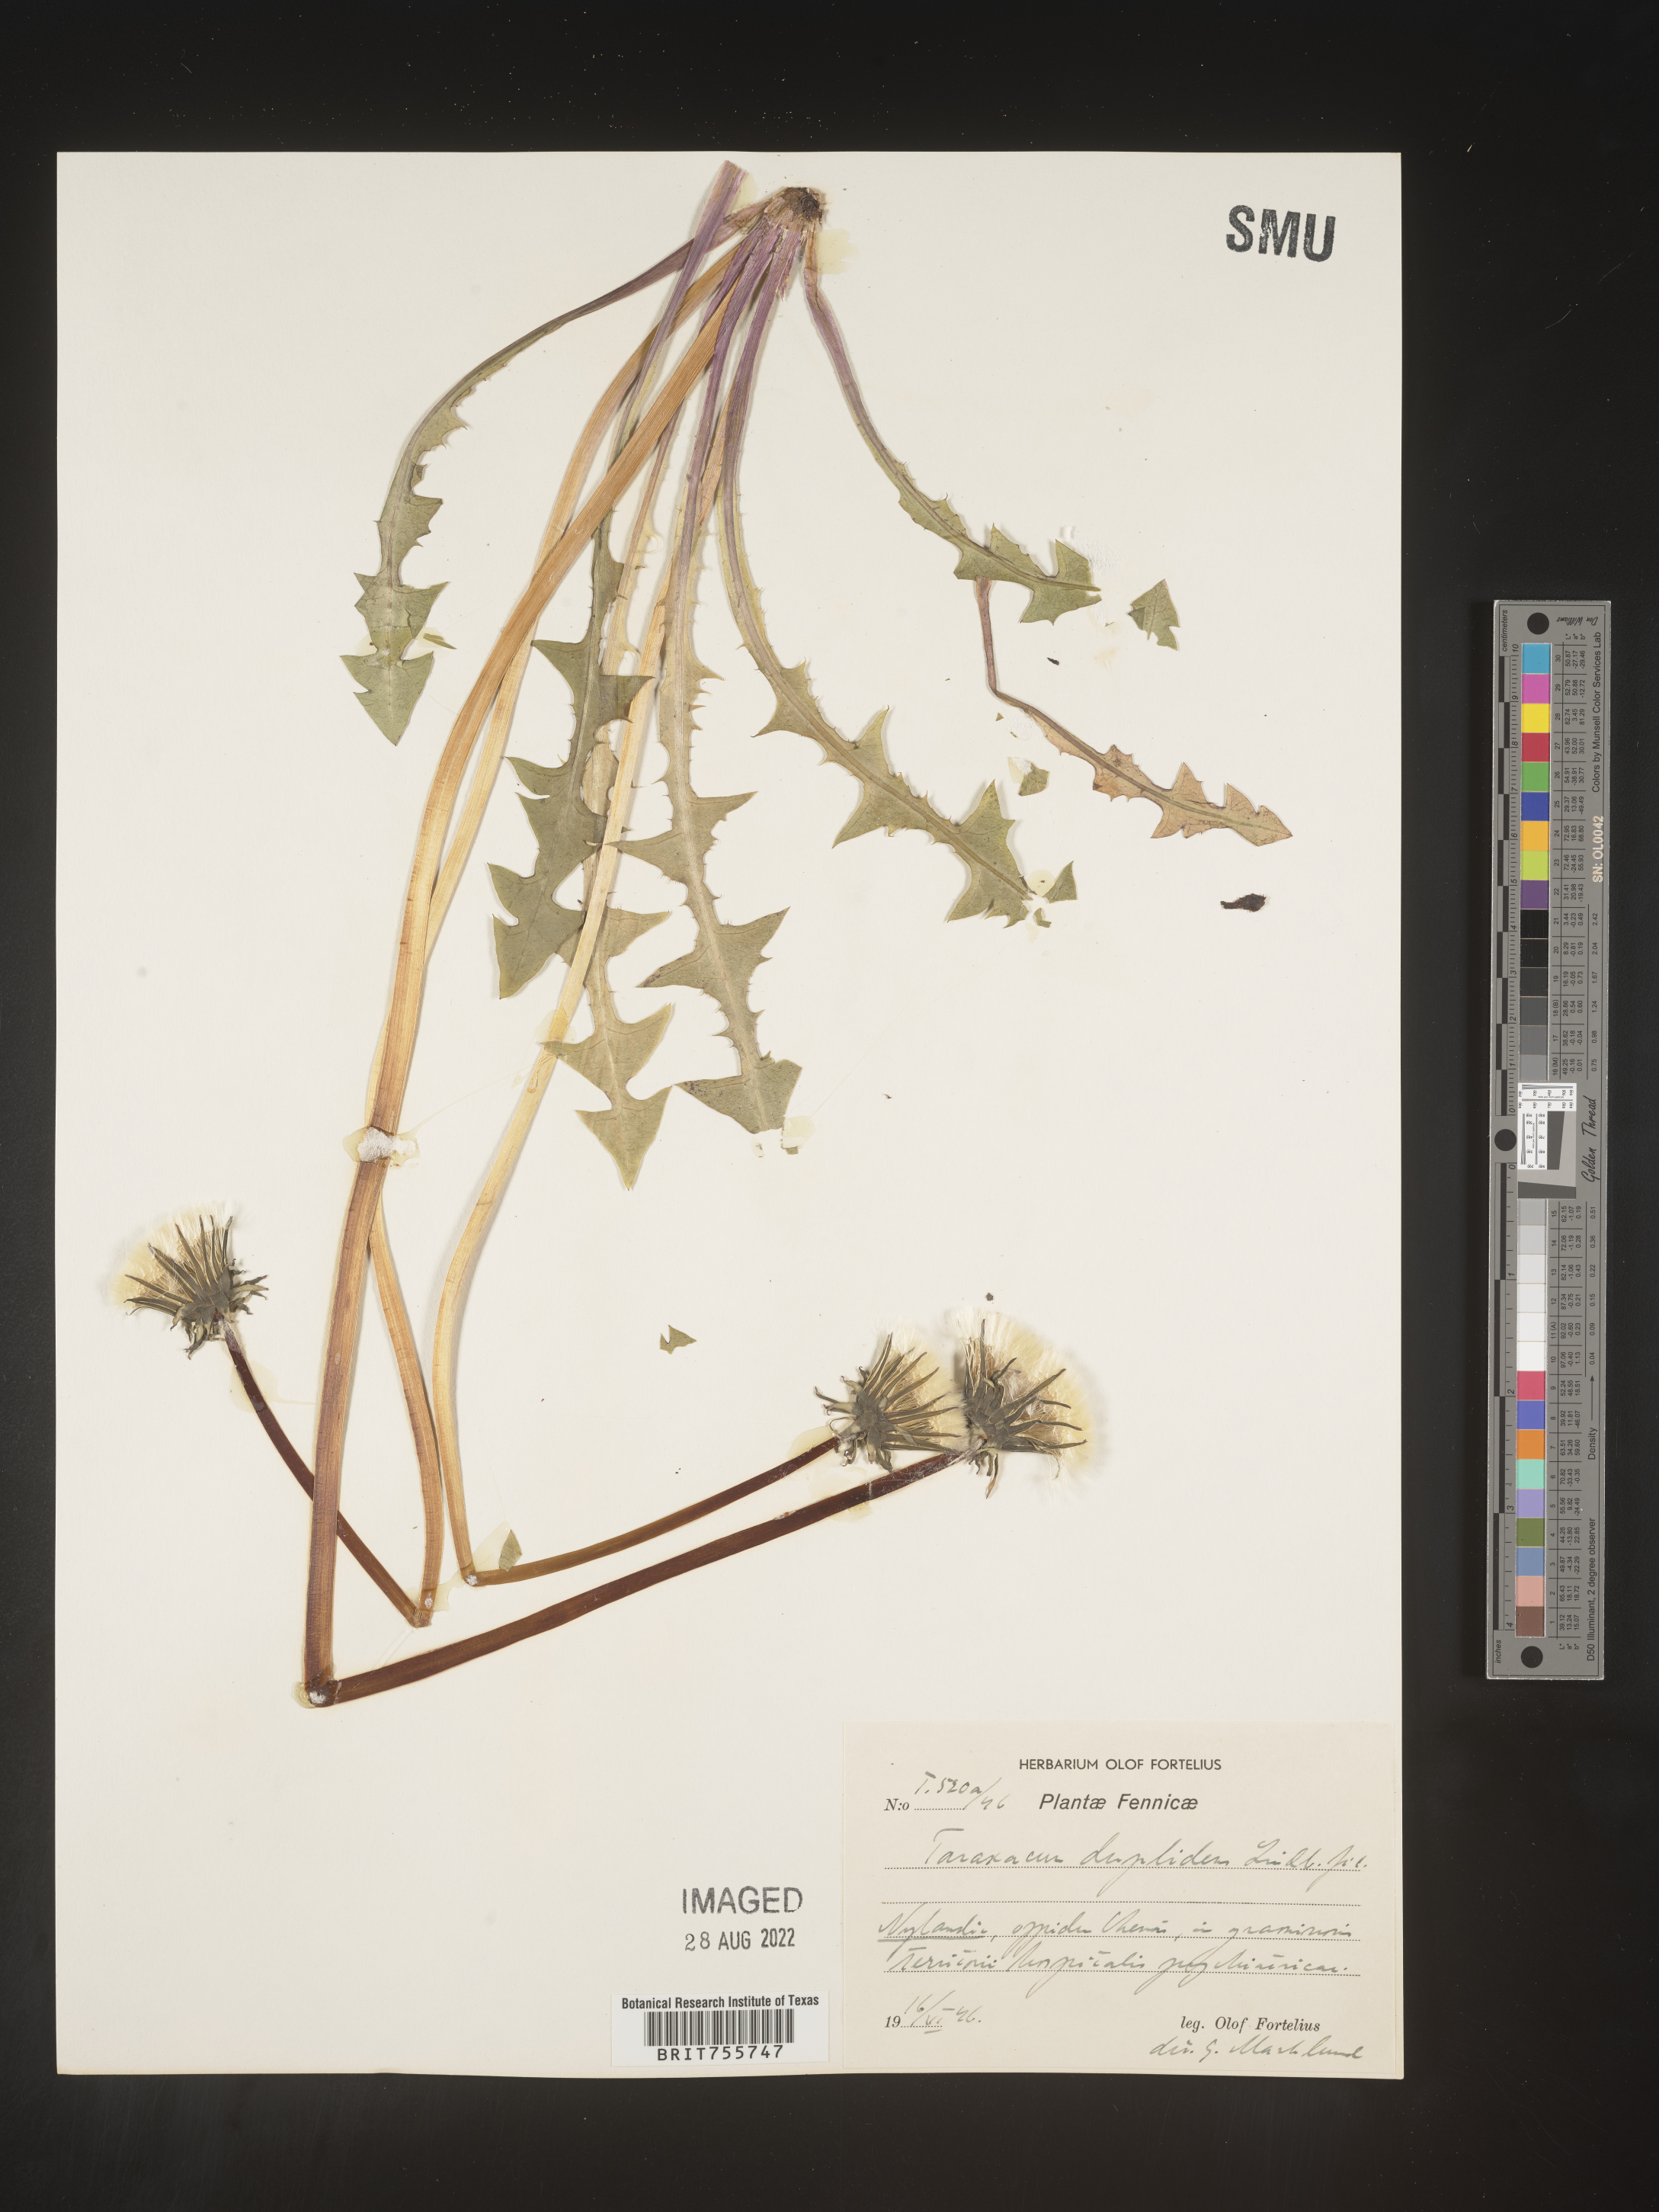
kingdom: Plantae
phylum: Tracheophyta
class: Magnoliopsida
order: Asterales
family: Asteraceae
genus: Taraxacum
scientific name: Taraxacum
